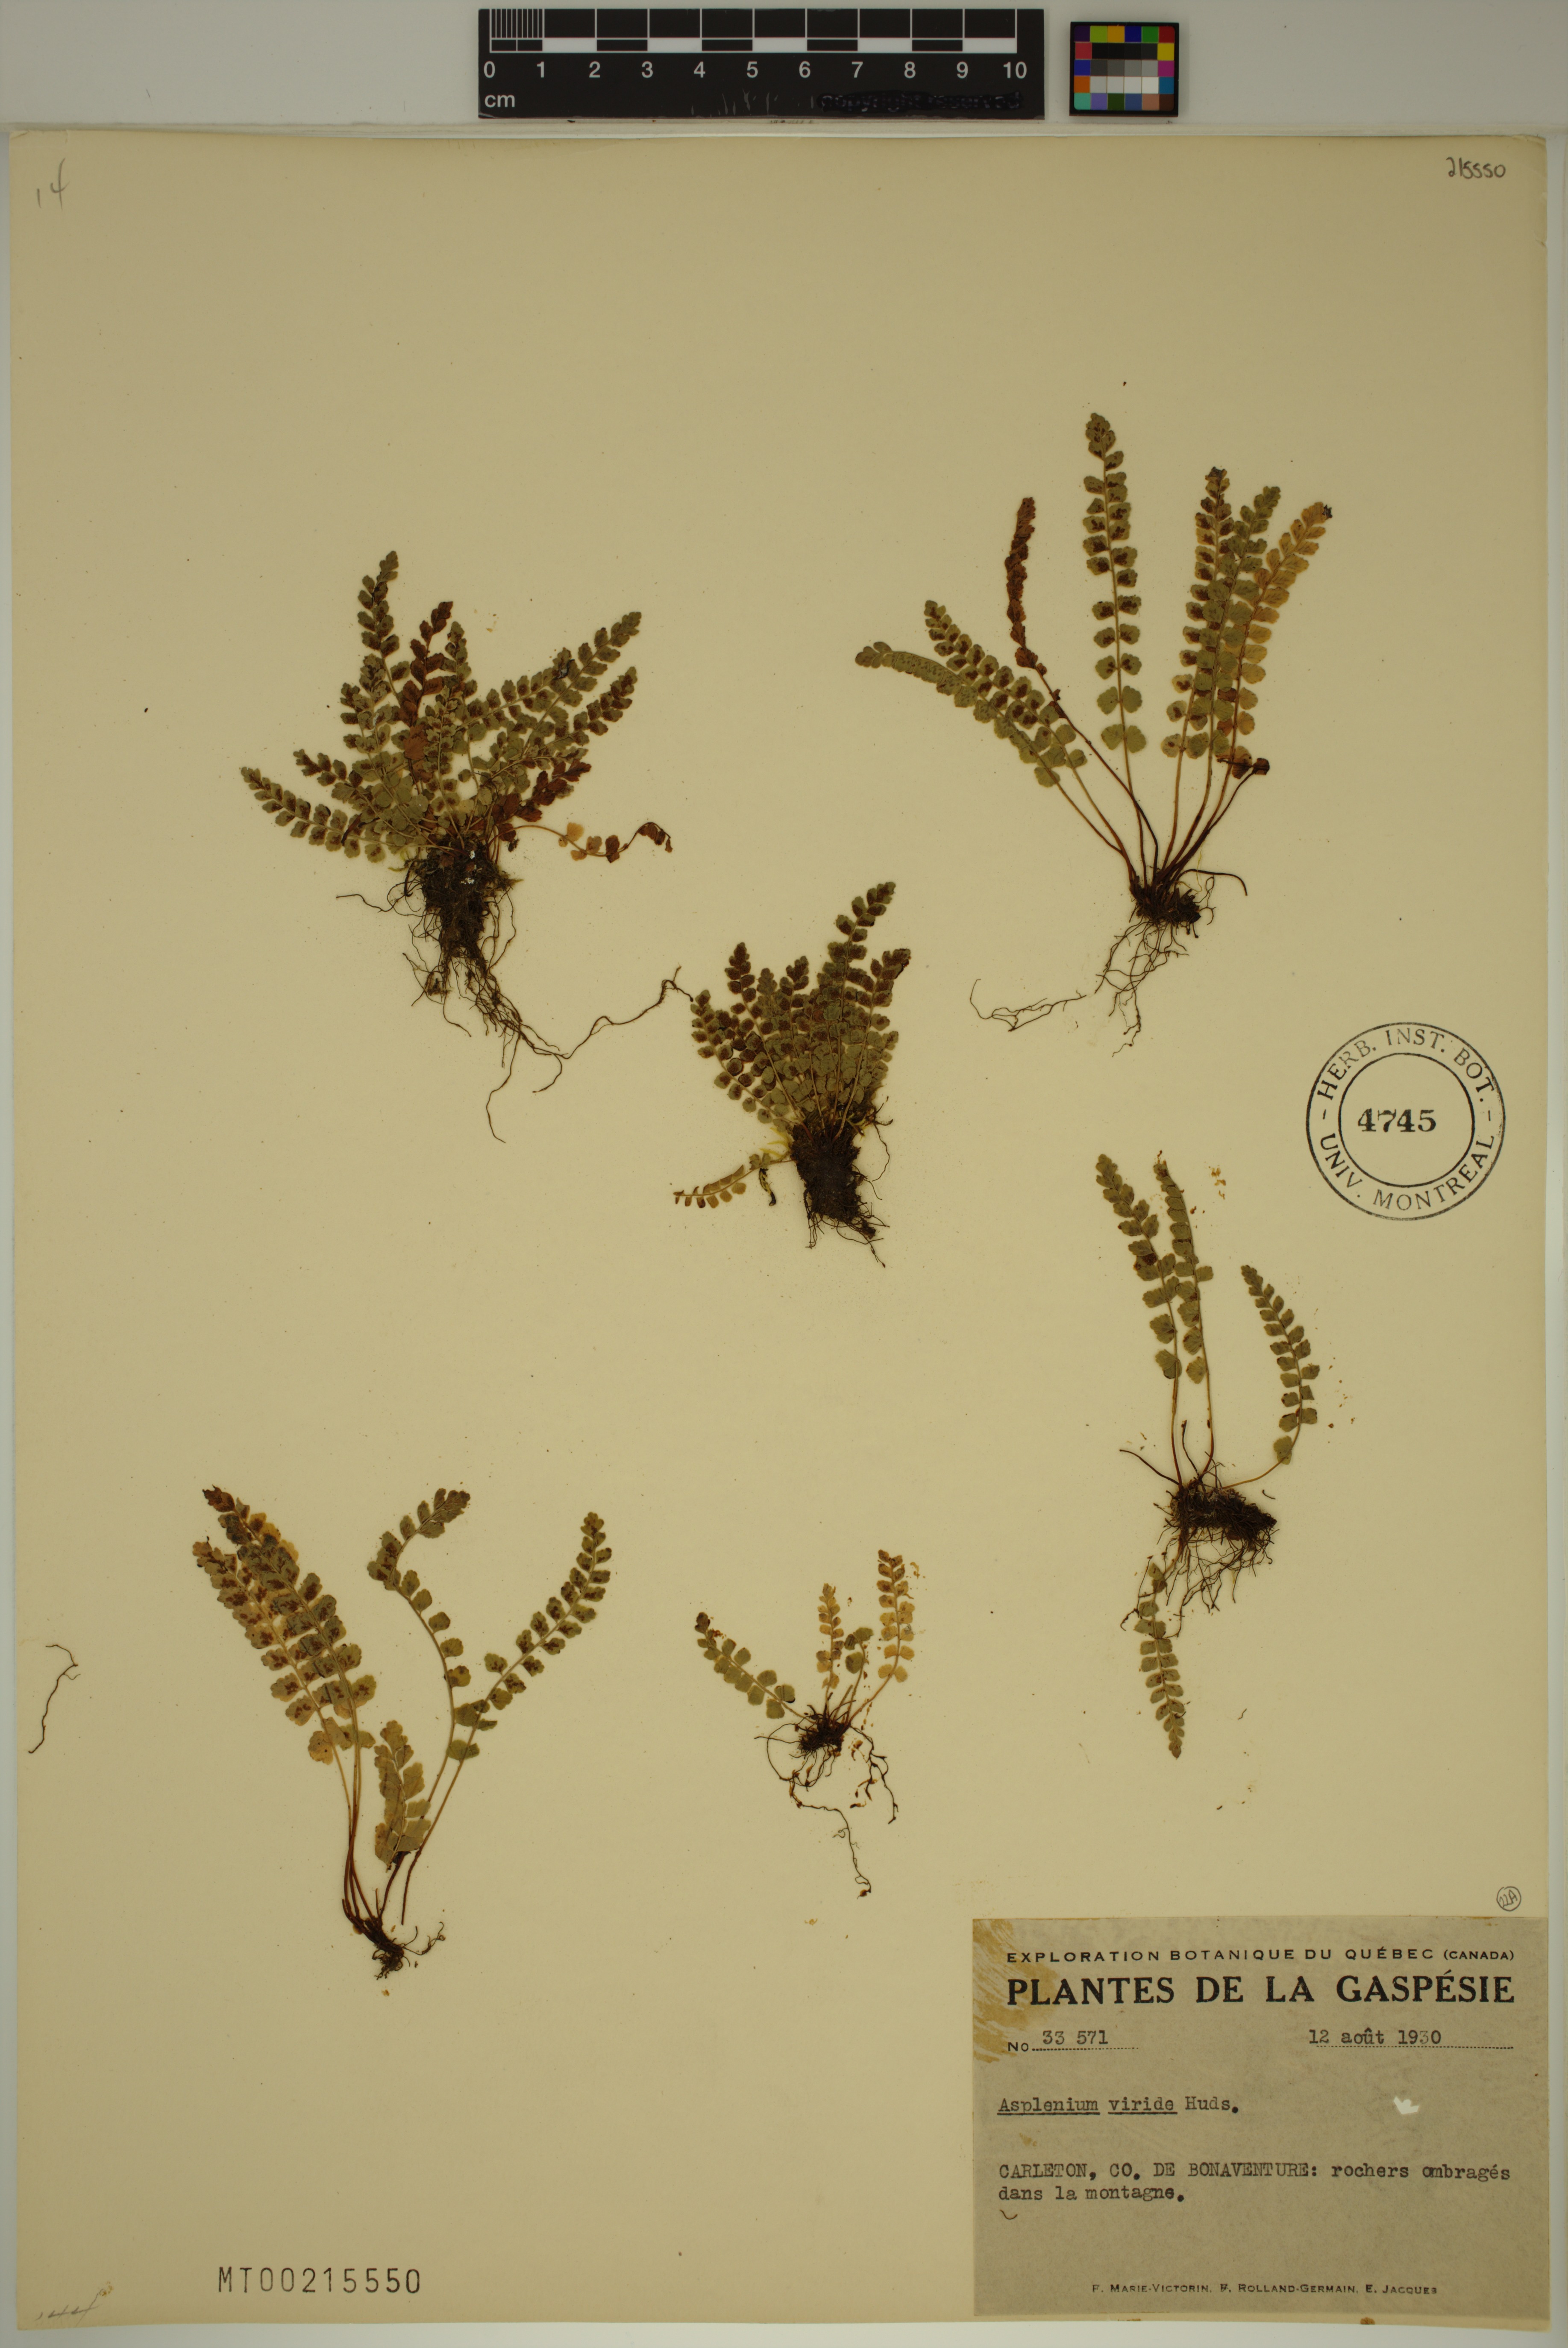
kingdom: Plantae
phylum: Tracheophyta
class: Polypodiopsida
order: Polypodiales
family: Aspleniaceae
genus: Asplenium
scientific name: Asplenium viride
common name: Green spleenwort
